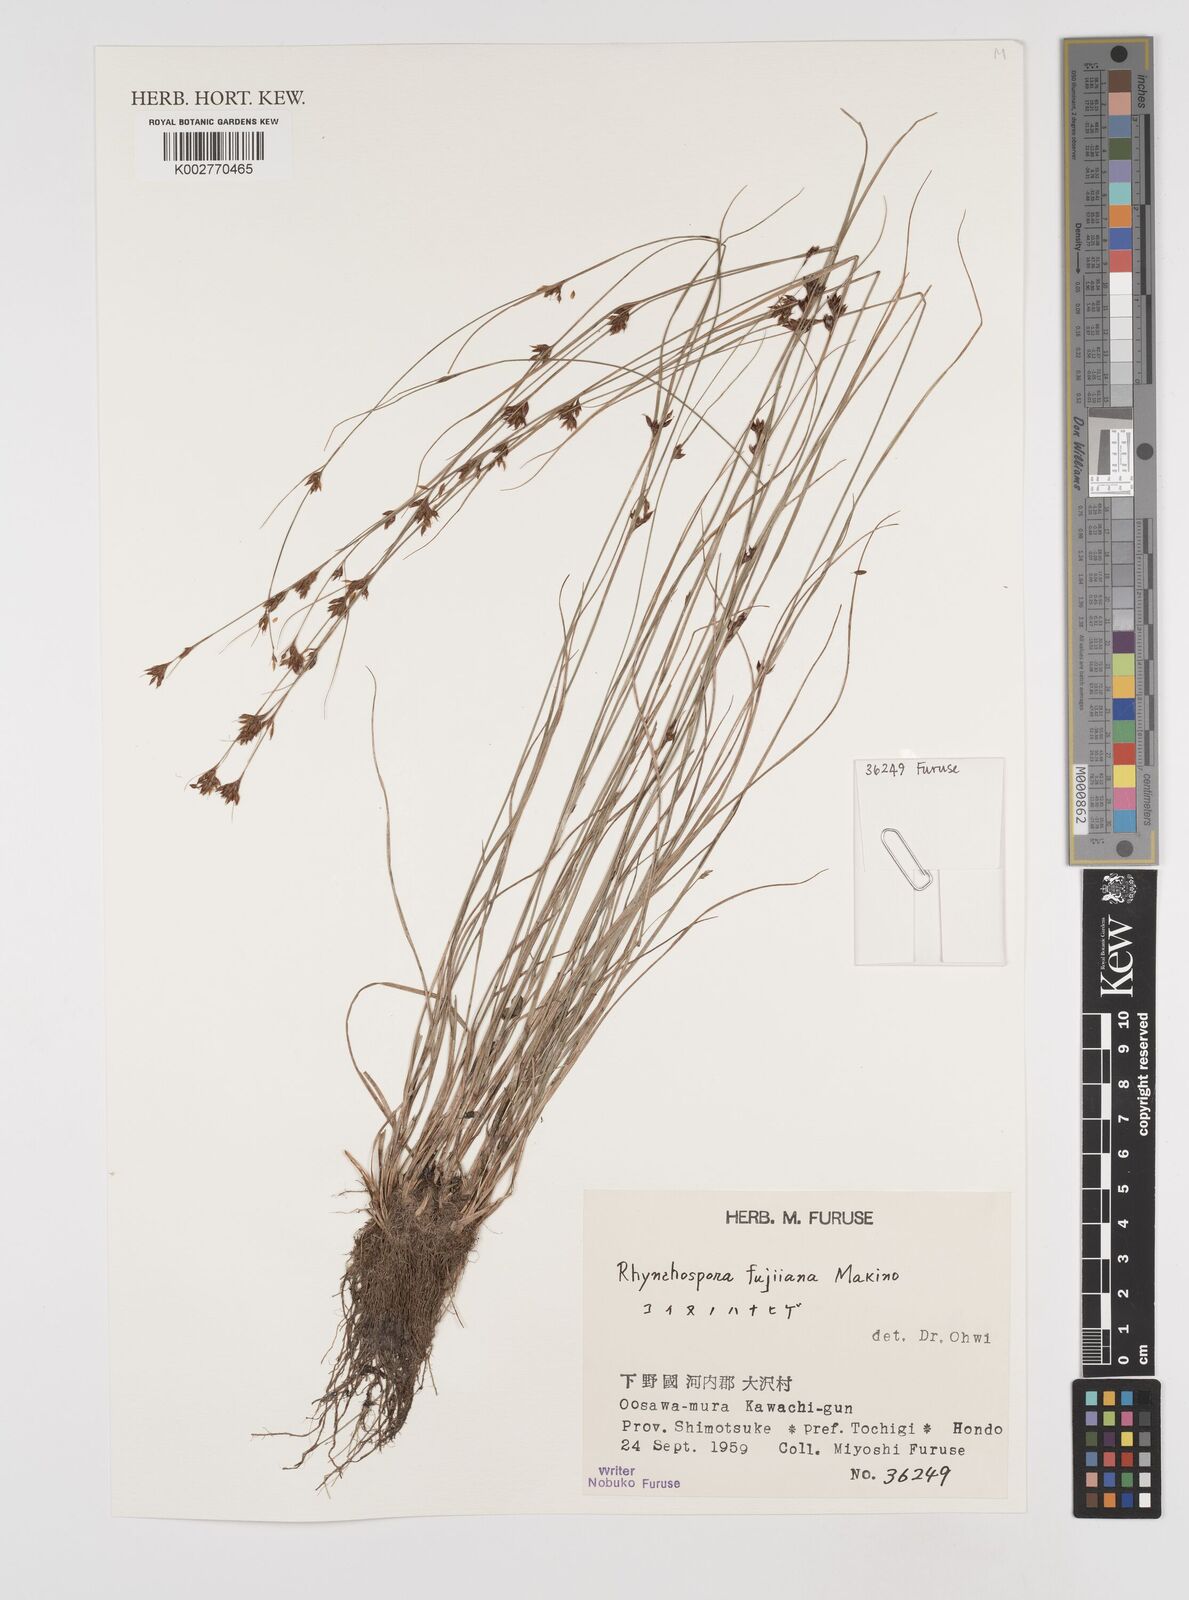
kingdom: Plantae
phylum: Tracheophyta
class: Liliopsida
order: Poales
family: Cyperaceae
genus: Rhynchospora
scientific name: Rhynchospora fujiiana
